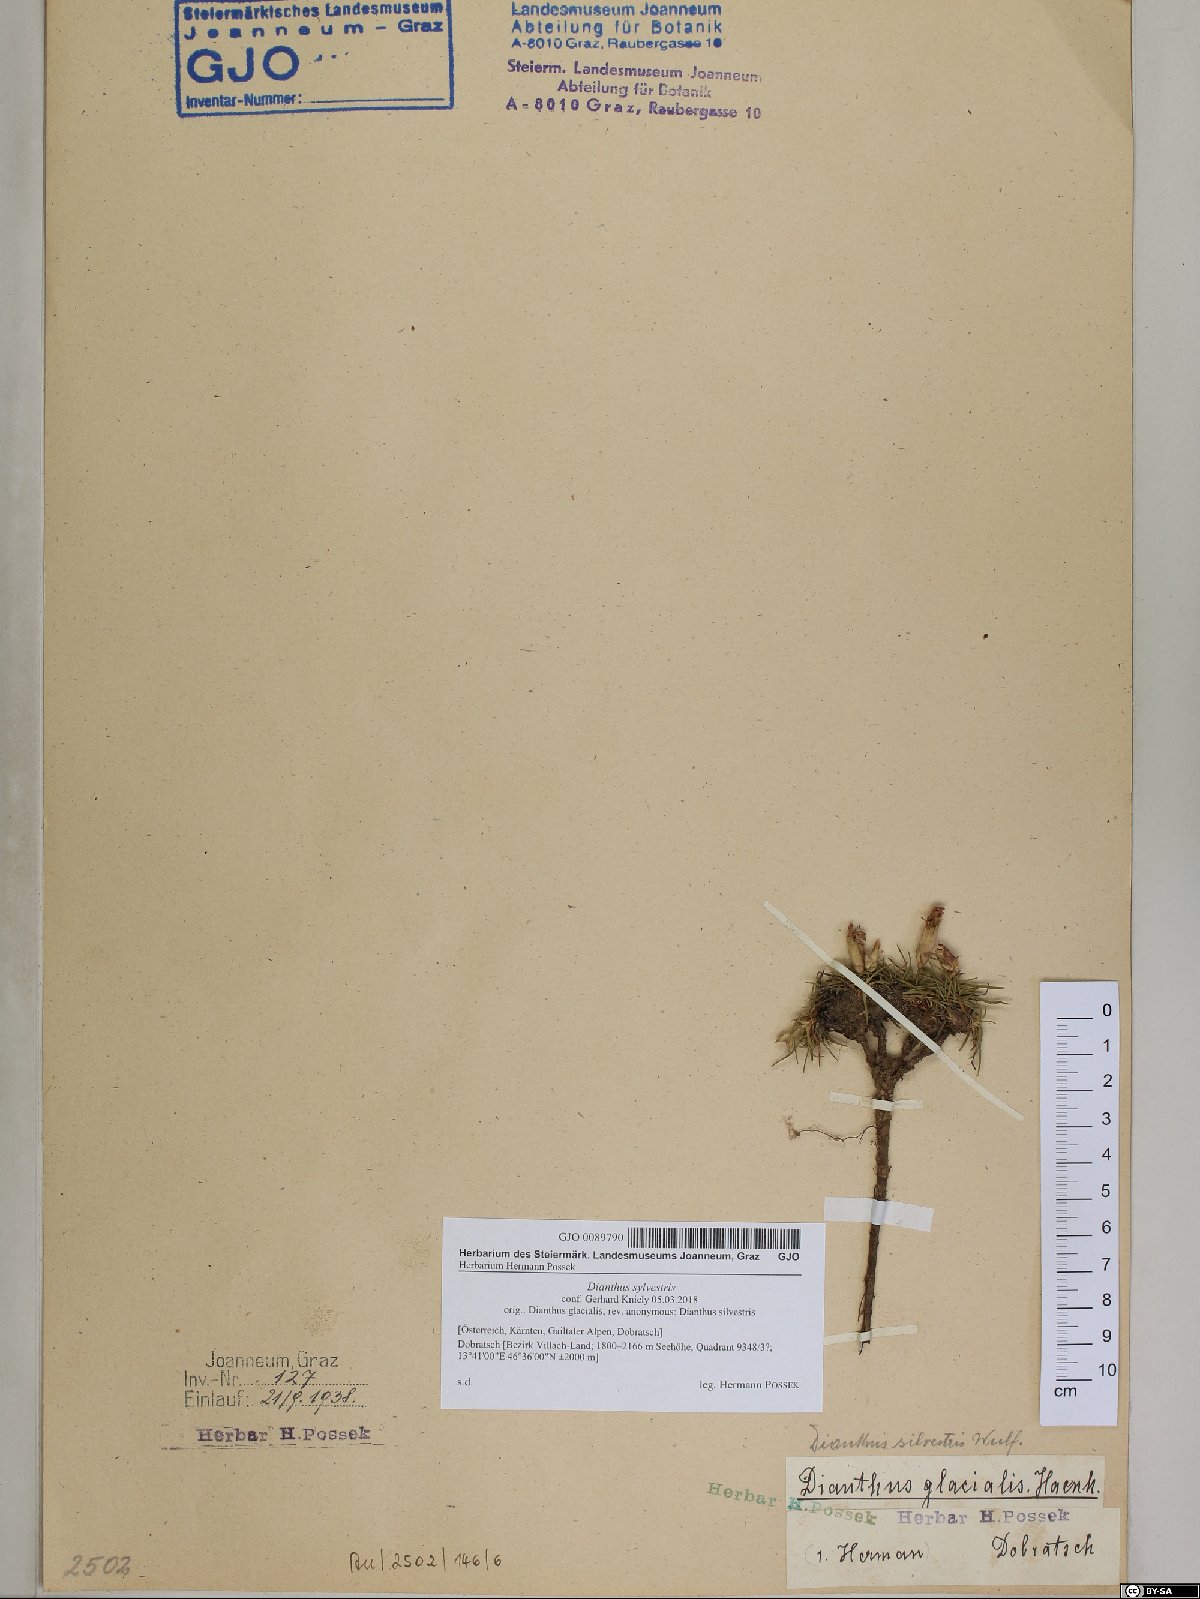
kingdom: Plantae
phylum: Tracheophyta
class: Magnoliopsida
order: Caryophyllales
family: Caryophyllaceae
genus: Dianthus
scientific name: Dianthus sylvestris
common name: Wood pink
